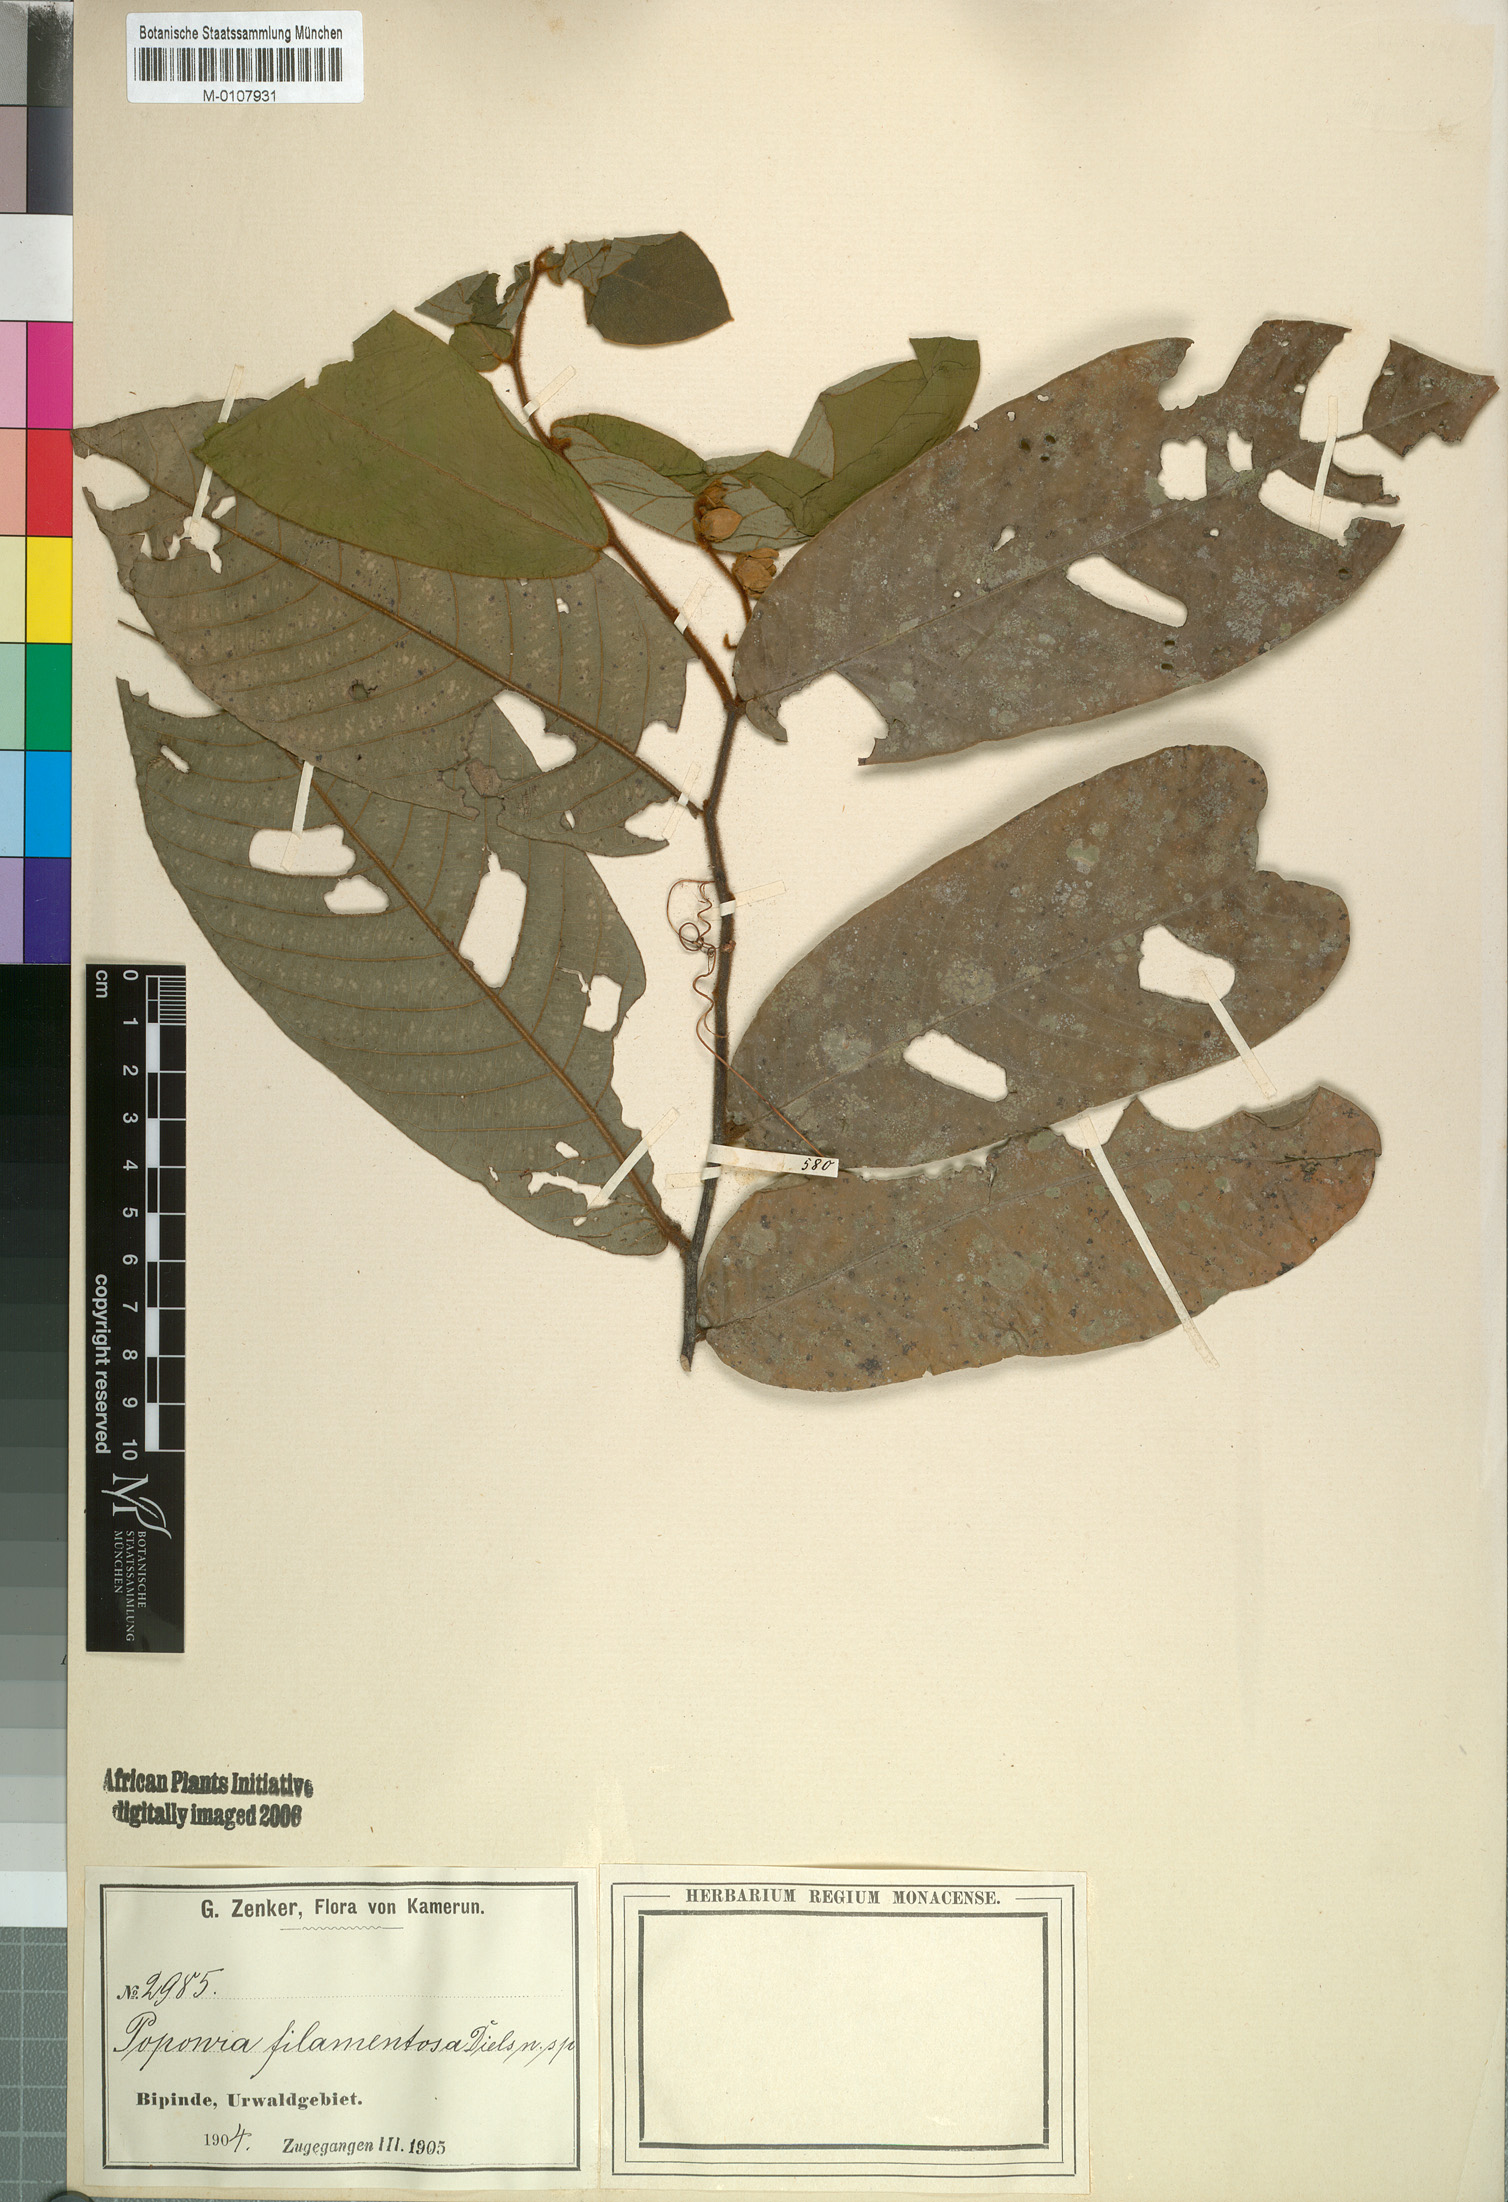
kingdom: Plantae
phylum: Tracheophyta
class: Magnoliopsida
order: Magnoliales
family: Annonaceae
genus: Monanthotaxis
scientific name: Monanthotaxis filamentosa
